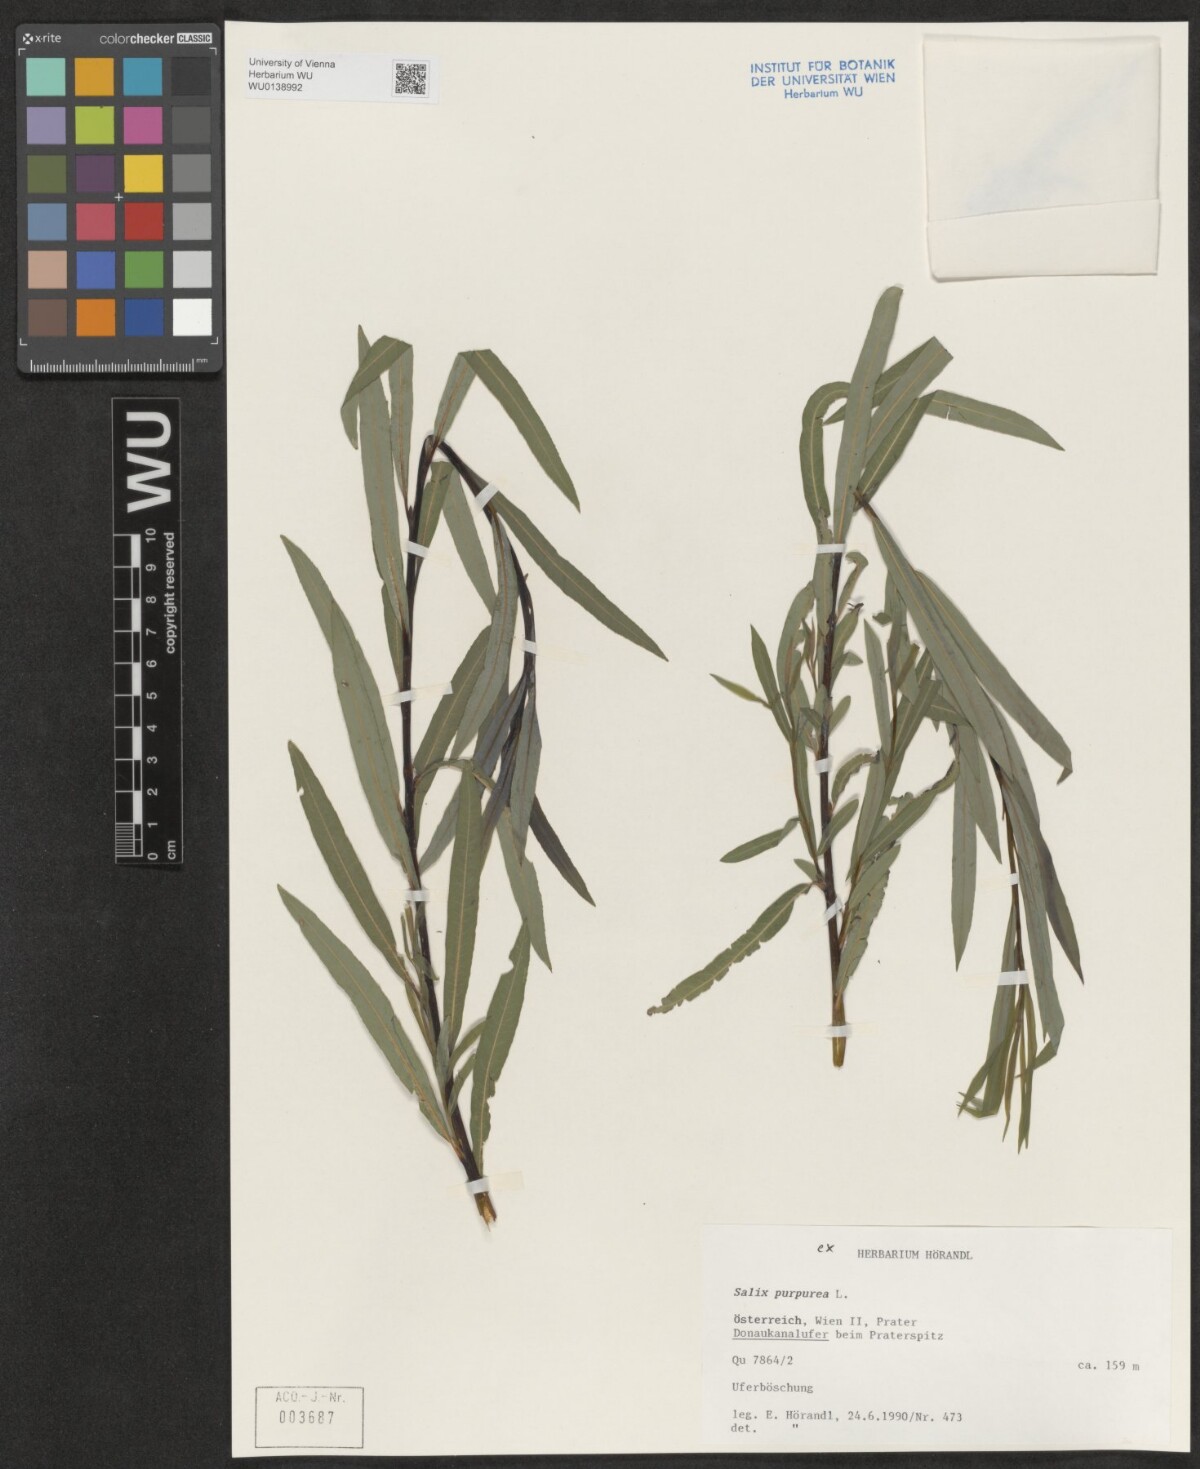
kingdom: Plantae
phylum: Tracheophyta
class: Magnoliopsida
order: Malpighiales
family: Salicaceae
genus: Salix
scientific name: Salix purpurea
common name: Purple willow
